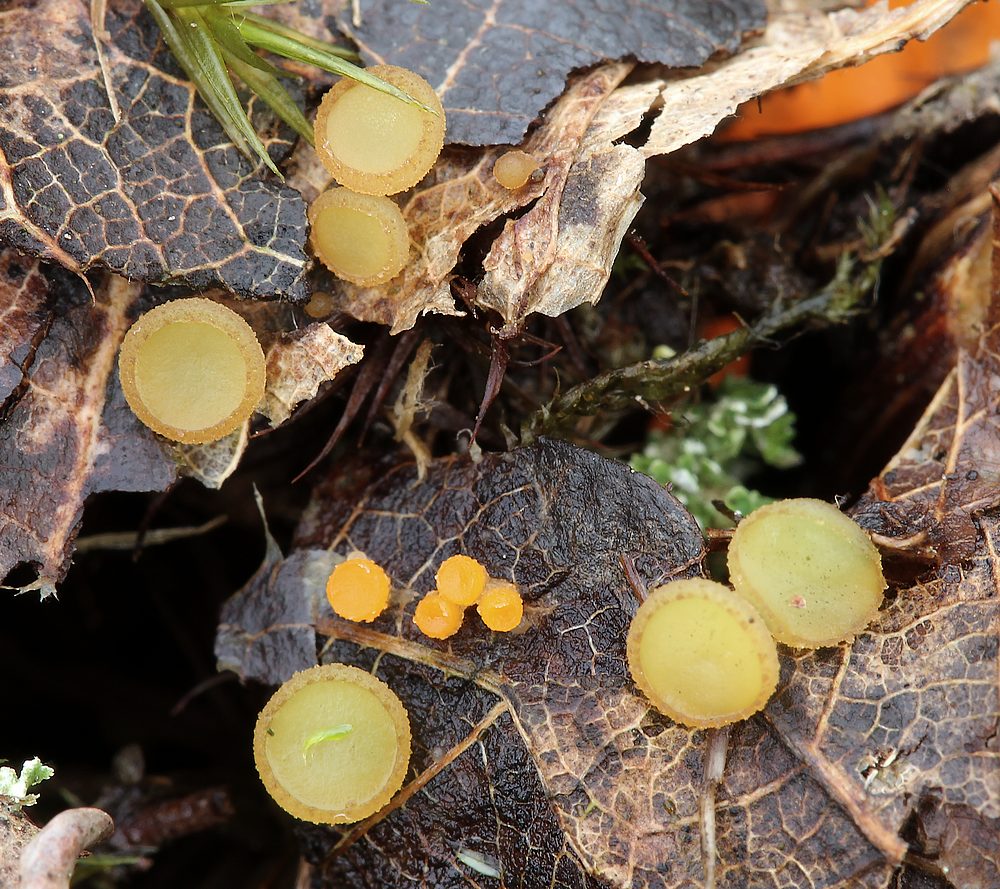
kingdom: Fungi
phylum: Ascomycota
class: Pezizomycetes
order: Pezizales
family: Ascobolaceae
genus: Ascobolus
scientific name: Ascobolus epimyces
